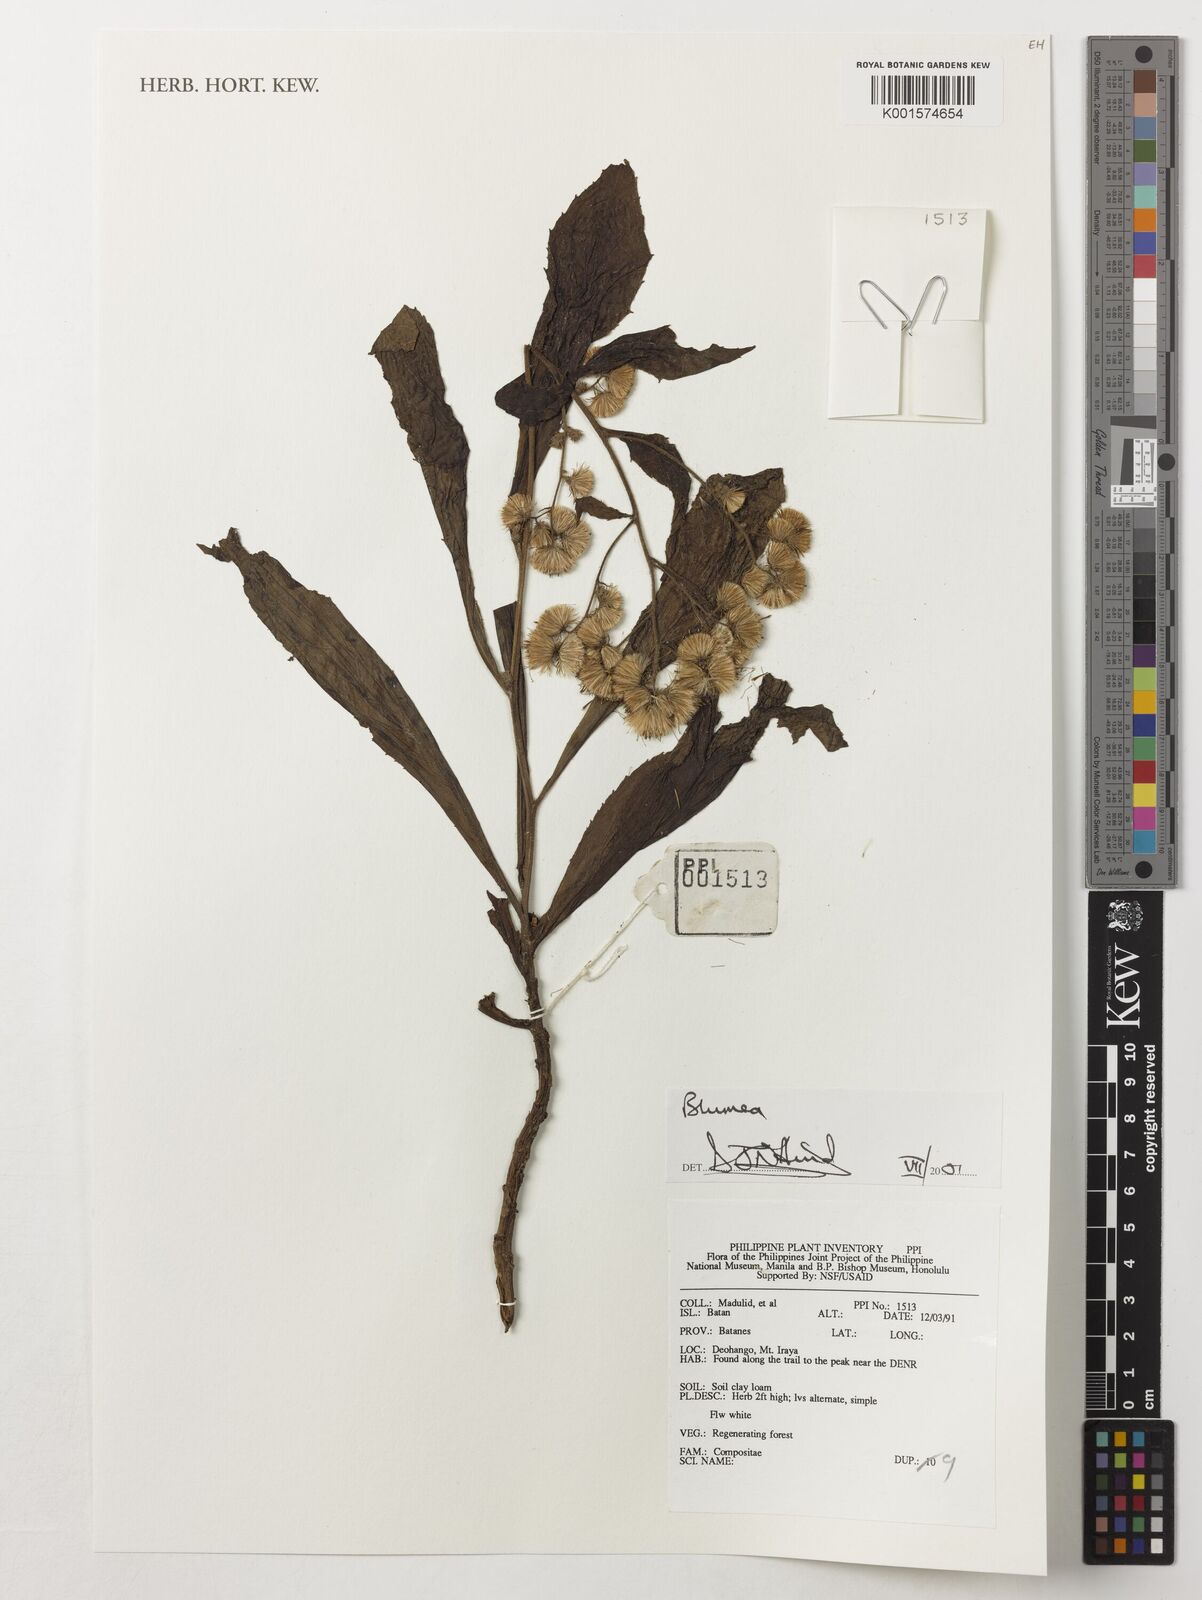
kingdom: Plantae
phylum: Tracheophyta
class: Magnoliopsida
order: Asterales
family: Asteraceae
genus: Blumea
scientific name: Blumea
